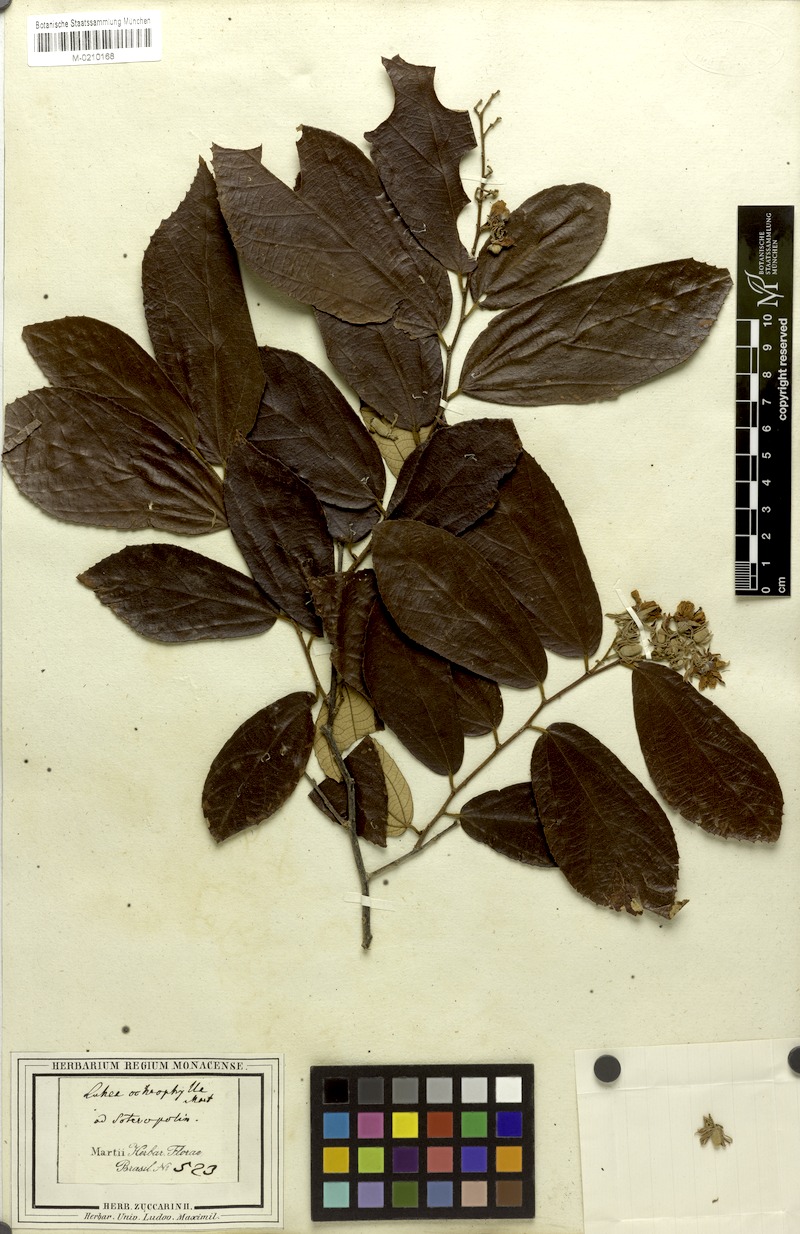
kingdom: Plantae
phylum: Tracheophyta
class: Magnoliopsida
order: Malvales
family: Malvaceae
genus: Luehea
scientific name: Luehea ochrophylla
